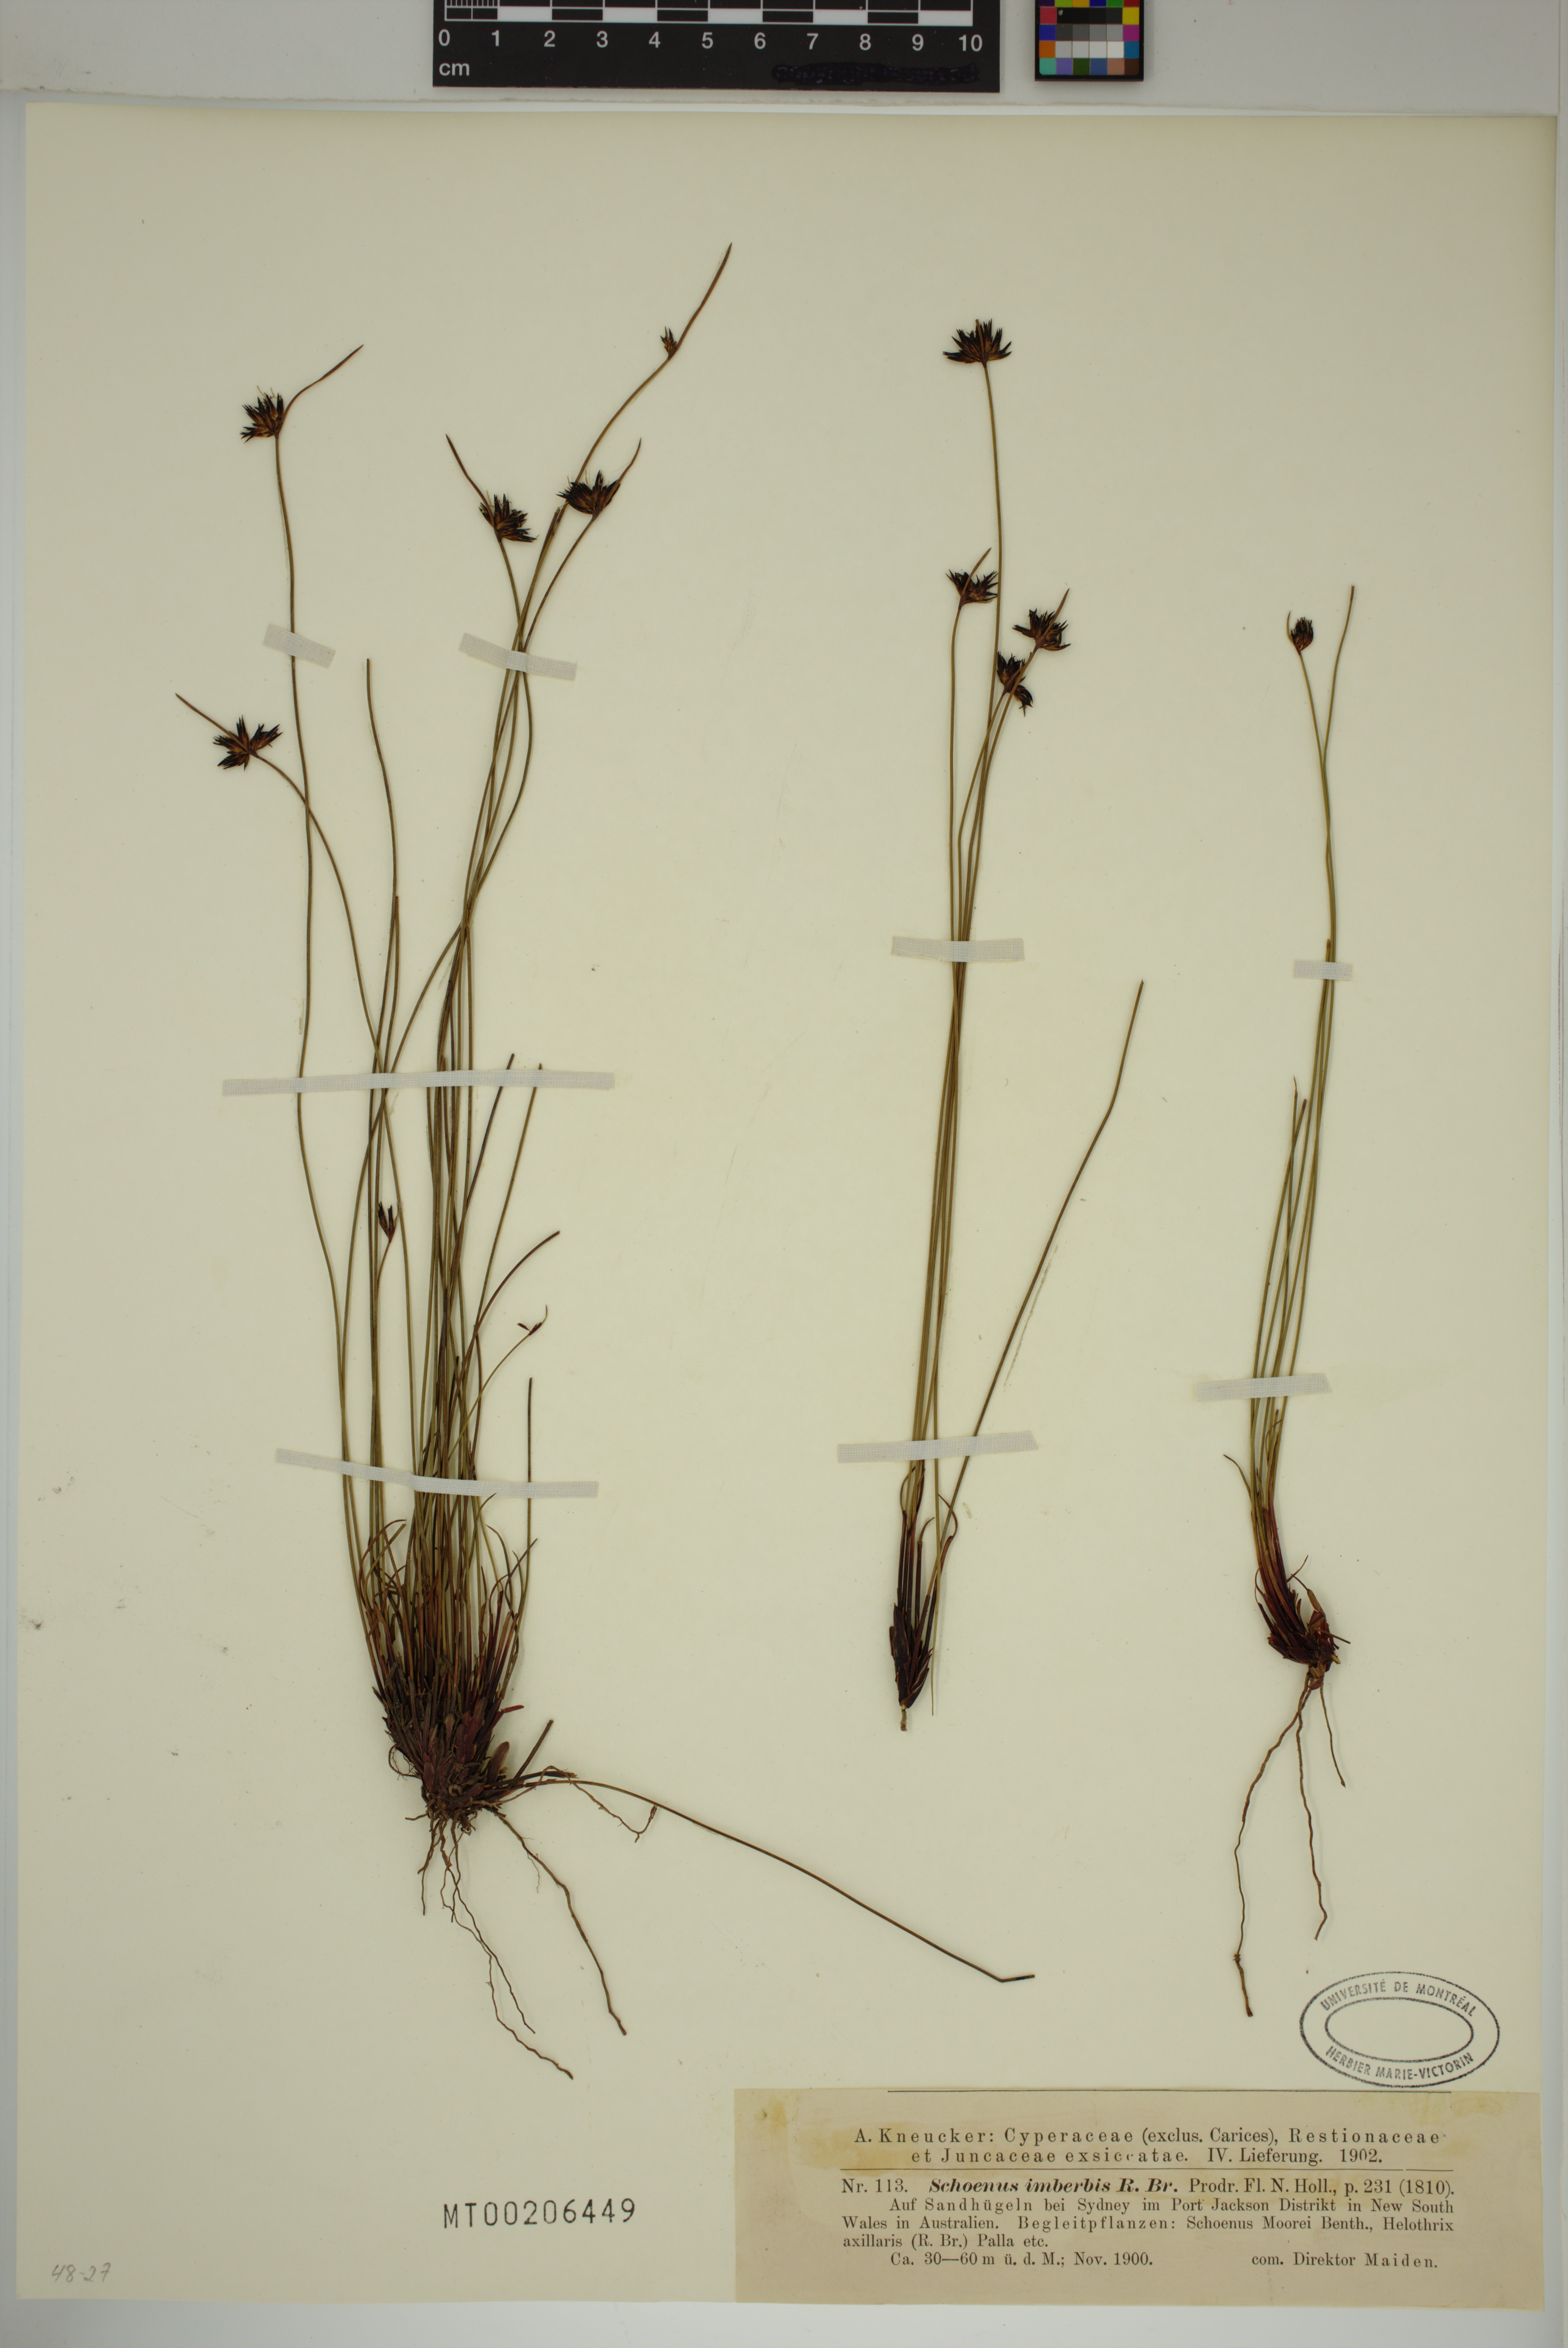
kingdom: Plantae
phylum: Tracheophyta
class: Liliopsida
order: Poales
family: Cyperaceae
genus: Schoenus
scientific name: Schoenus imberbis
